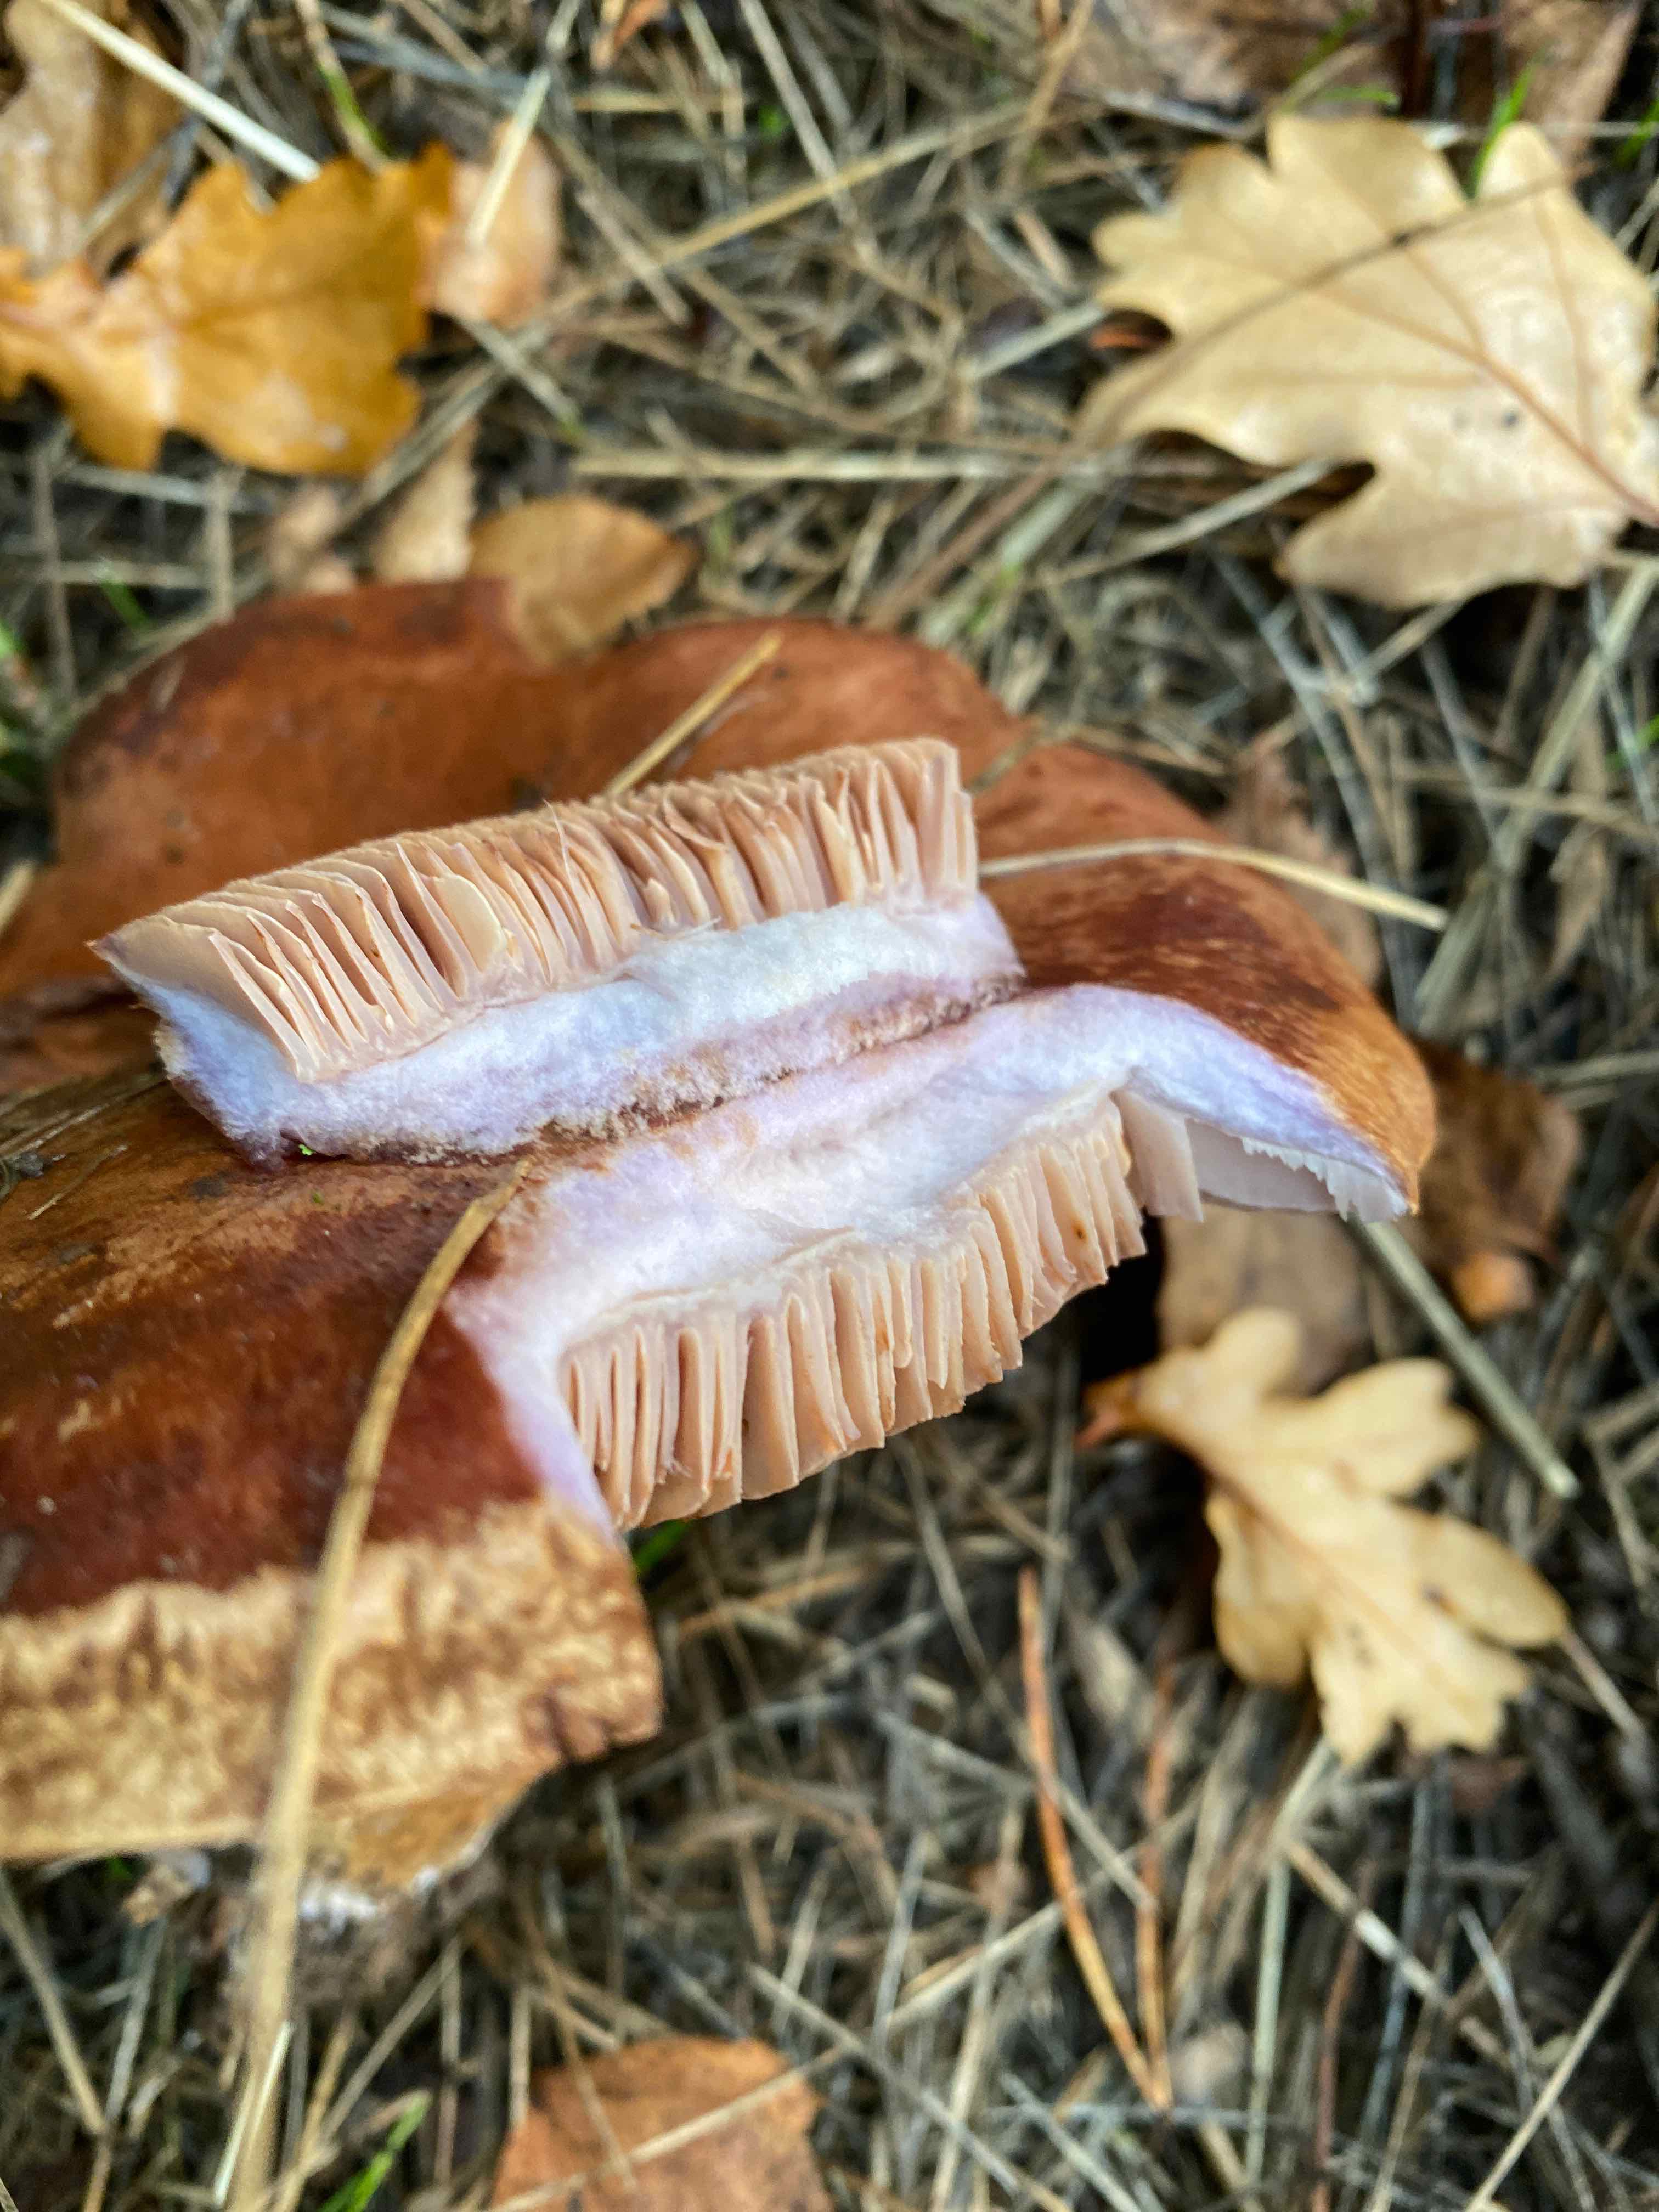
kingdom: Fungi
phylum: Basidiomycota
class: Agaricomycetes
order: Agaricales
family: Cortinariaceae
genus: Phlegmacium
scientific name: Phlegmacium
